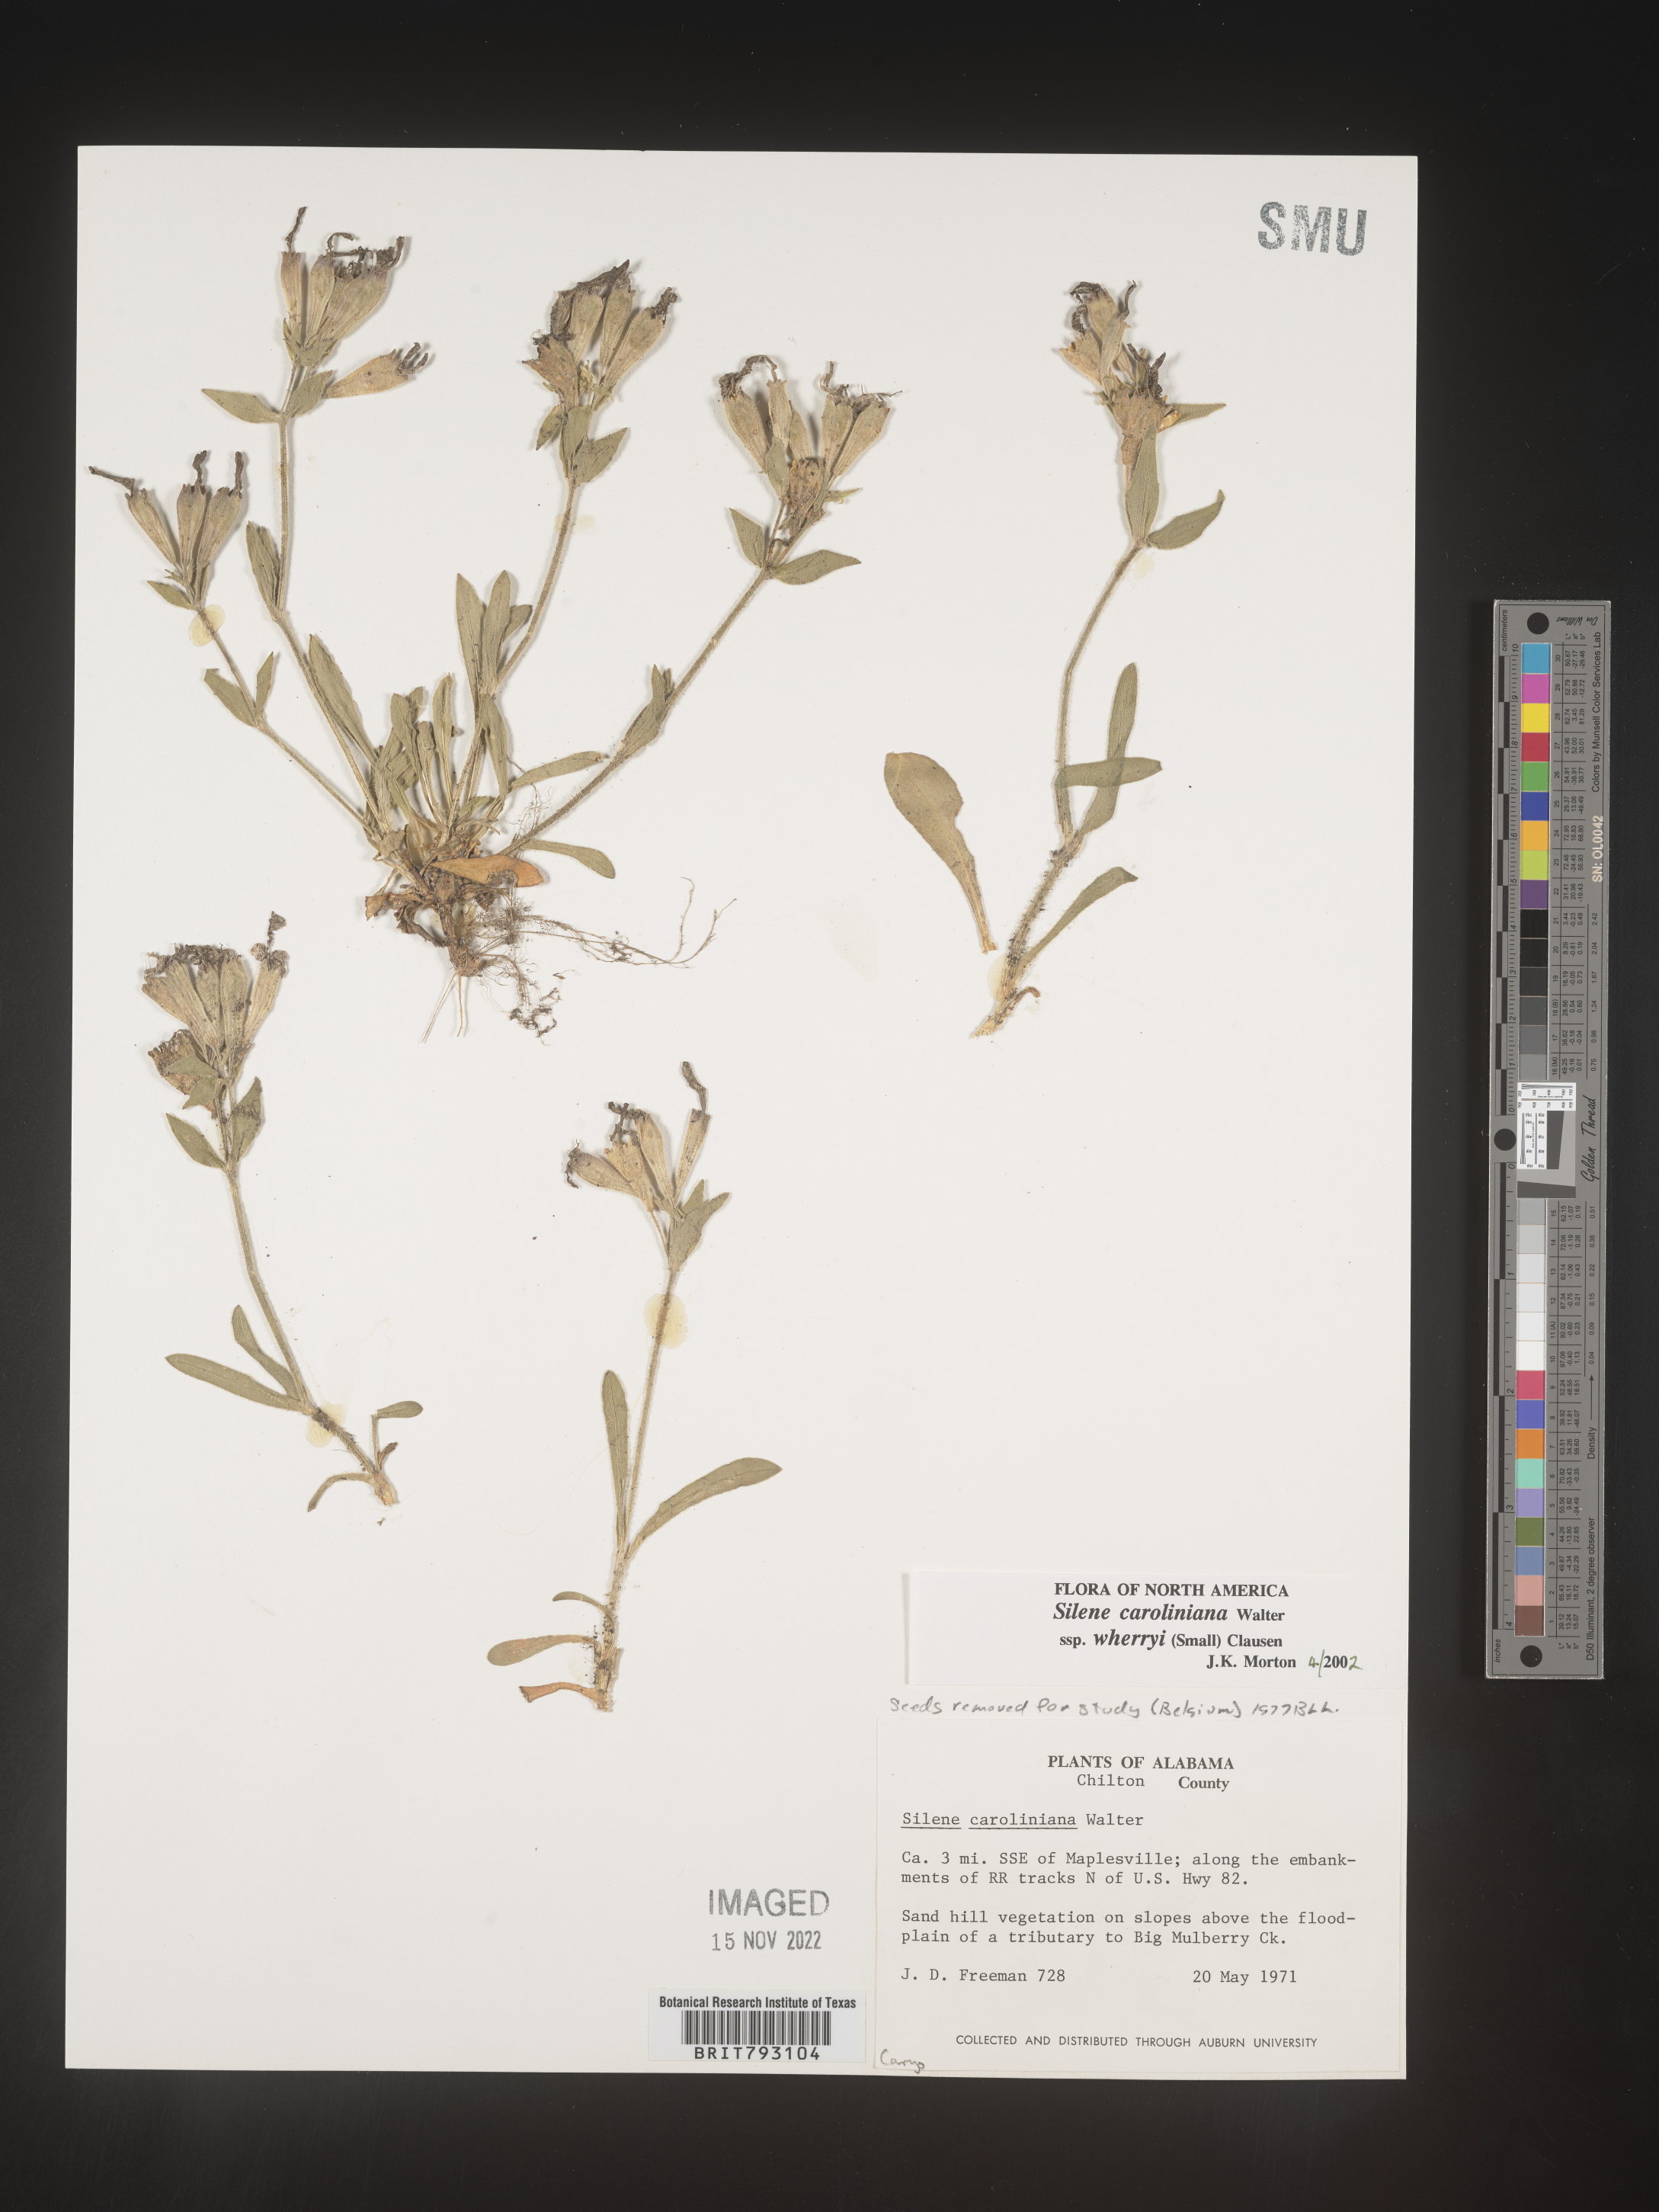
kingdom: Plantae
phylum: Tracheophyta
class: Magnoliopsida
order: Caryophyllales
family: Caryophyllaceae
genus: Silene
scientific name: Silene caroliniana
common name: Sticky catchfly
